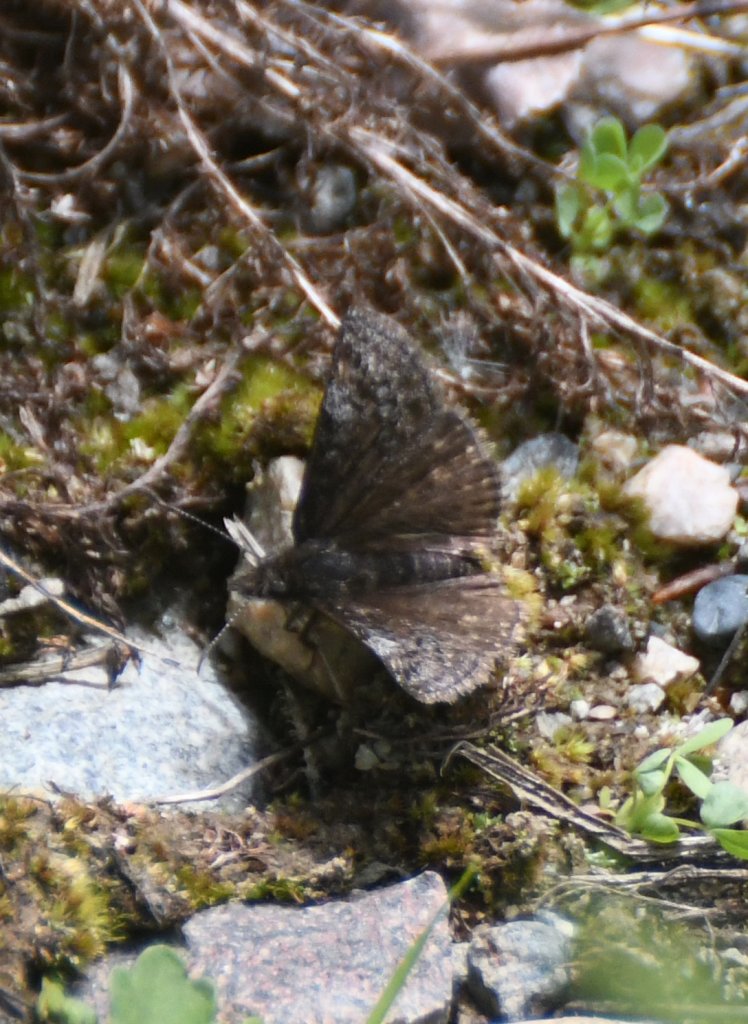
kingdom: Animalia
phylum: Arthropoda
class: Insecta
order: Lepidoptera
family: Hesperiidae
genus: Erynnis
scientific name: Erynnis icelus
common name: Dreamy Duskywing
